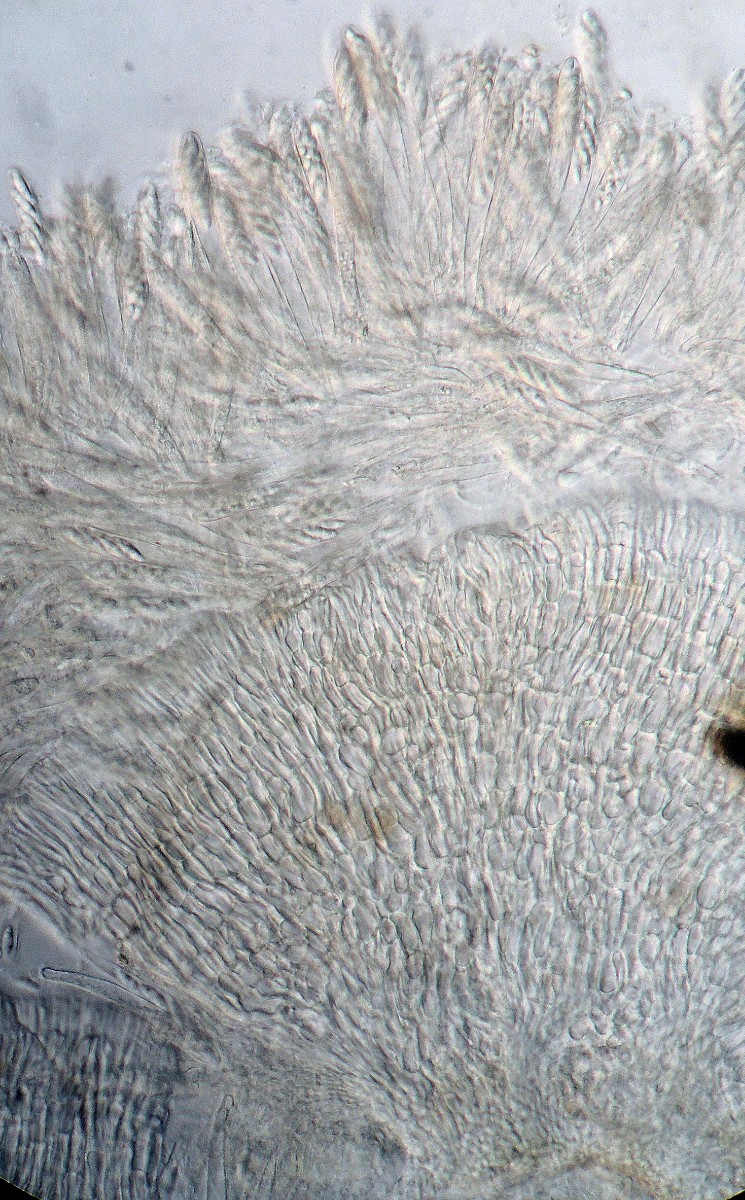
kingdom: Fungi
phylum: Ascomycota
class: Leotiomycetes
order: Helotiales
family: Pezizellaceae
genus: Allophylaria
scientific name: Allophylaria campanuliformis
